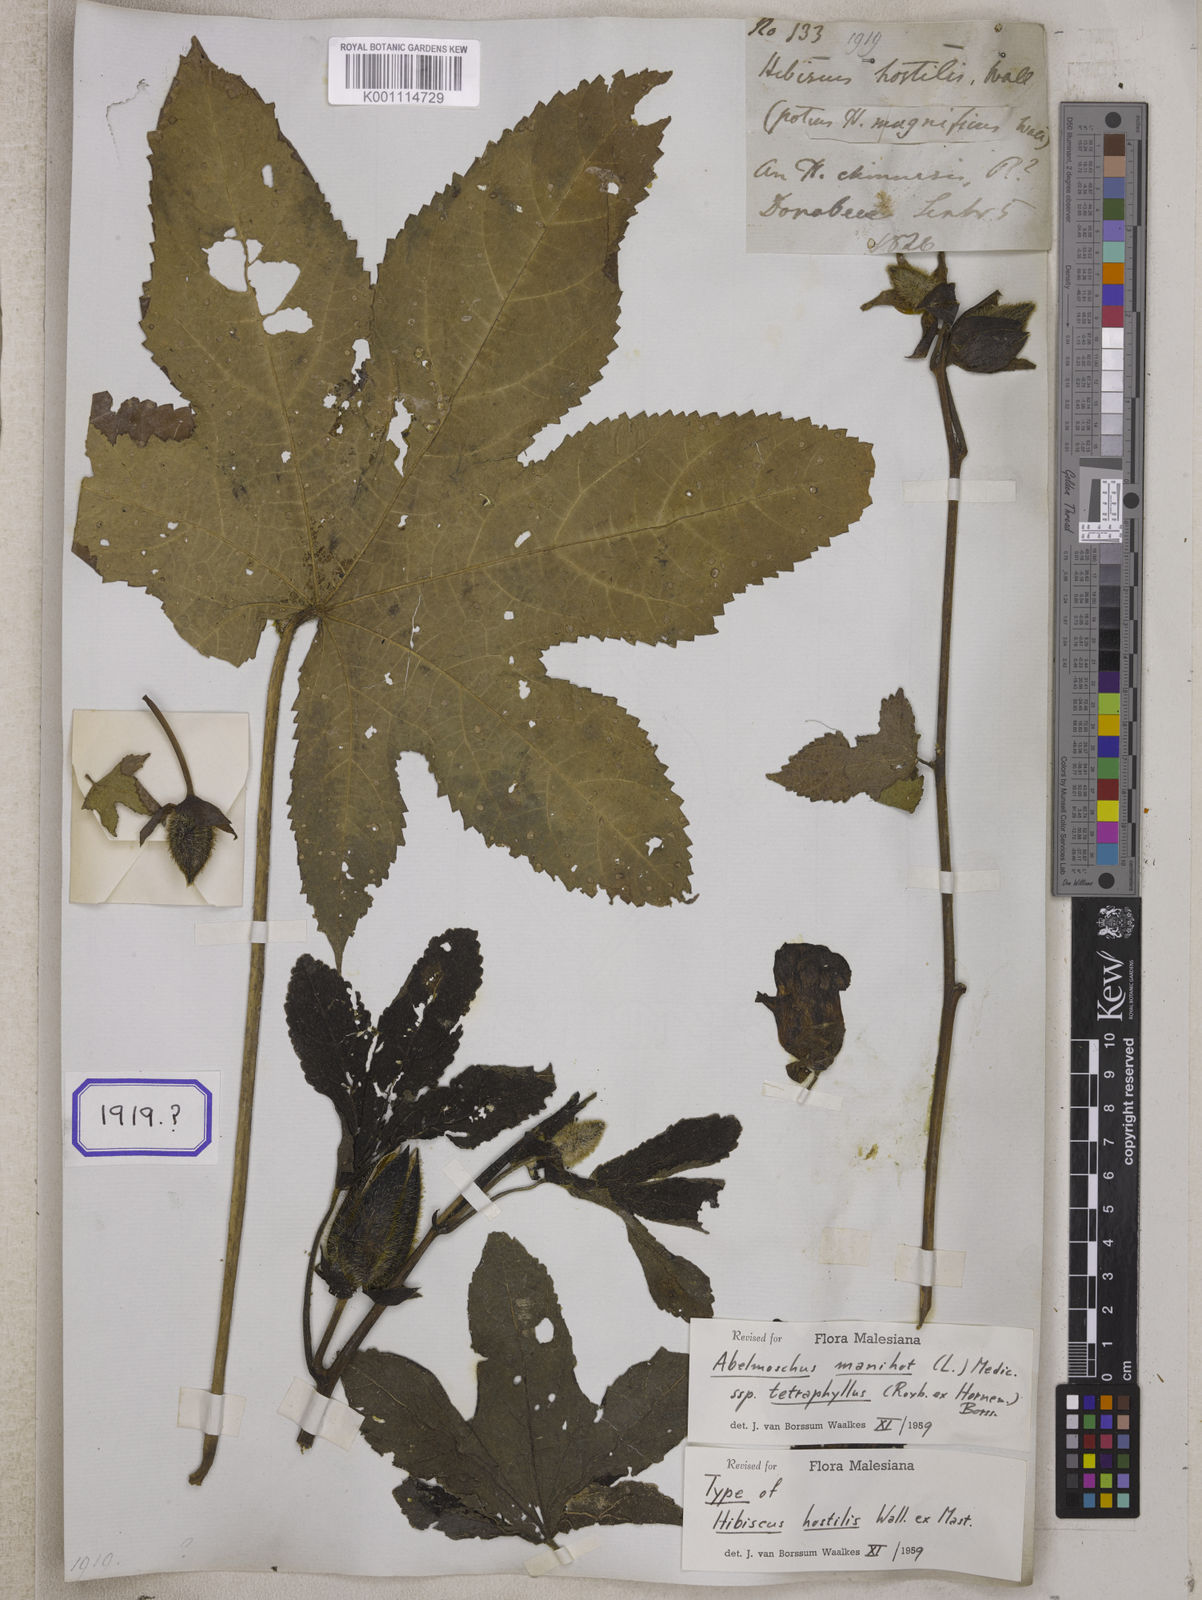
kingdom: Plantae
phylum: Tracheophyta
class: Magnoliopsida
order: Malvales
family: Malvaceae
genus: Bamia
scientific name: Bamia
